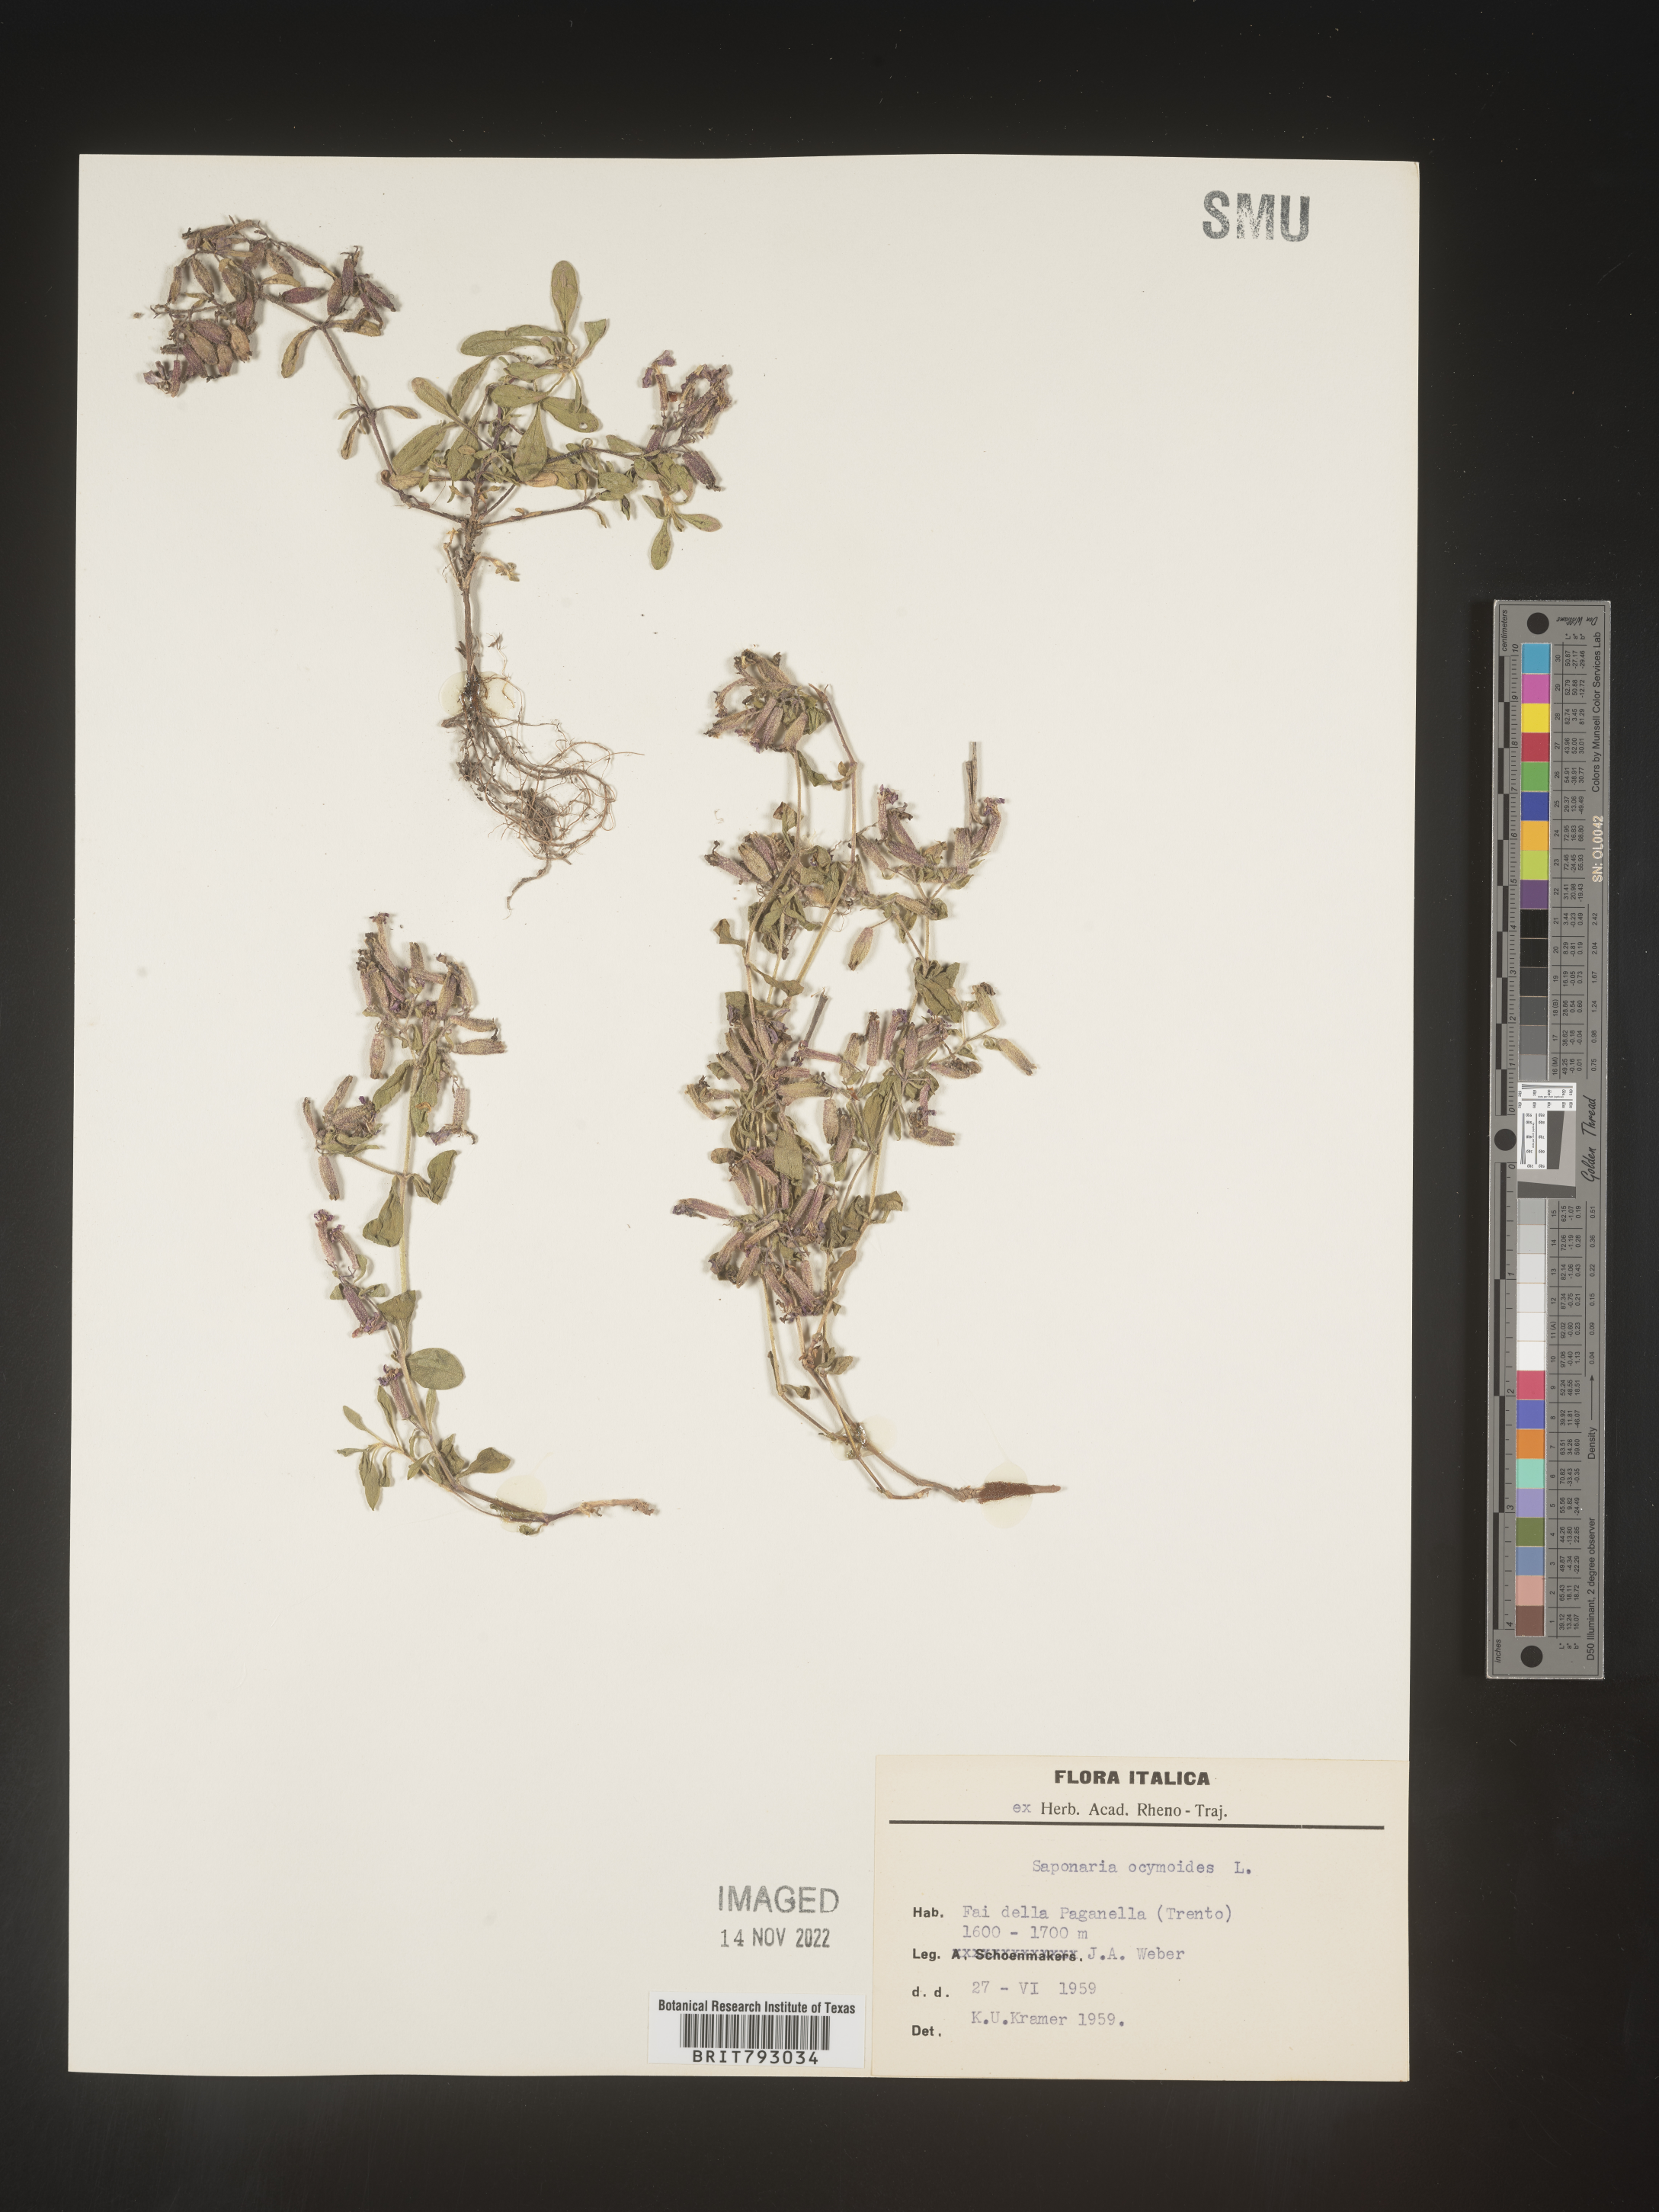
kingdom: Plantae
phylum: Tracheophyta
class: Magnoliopsida
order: Caryophyllales
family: Caryophyllaceae
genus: Saponaria
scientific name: Saponaria
